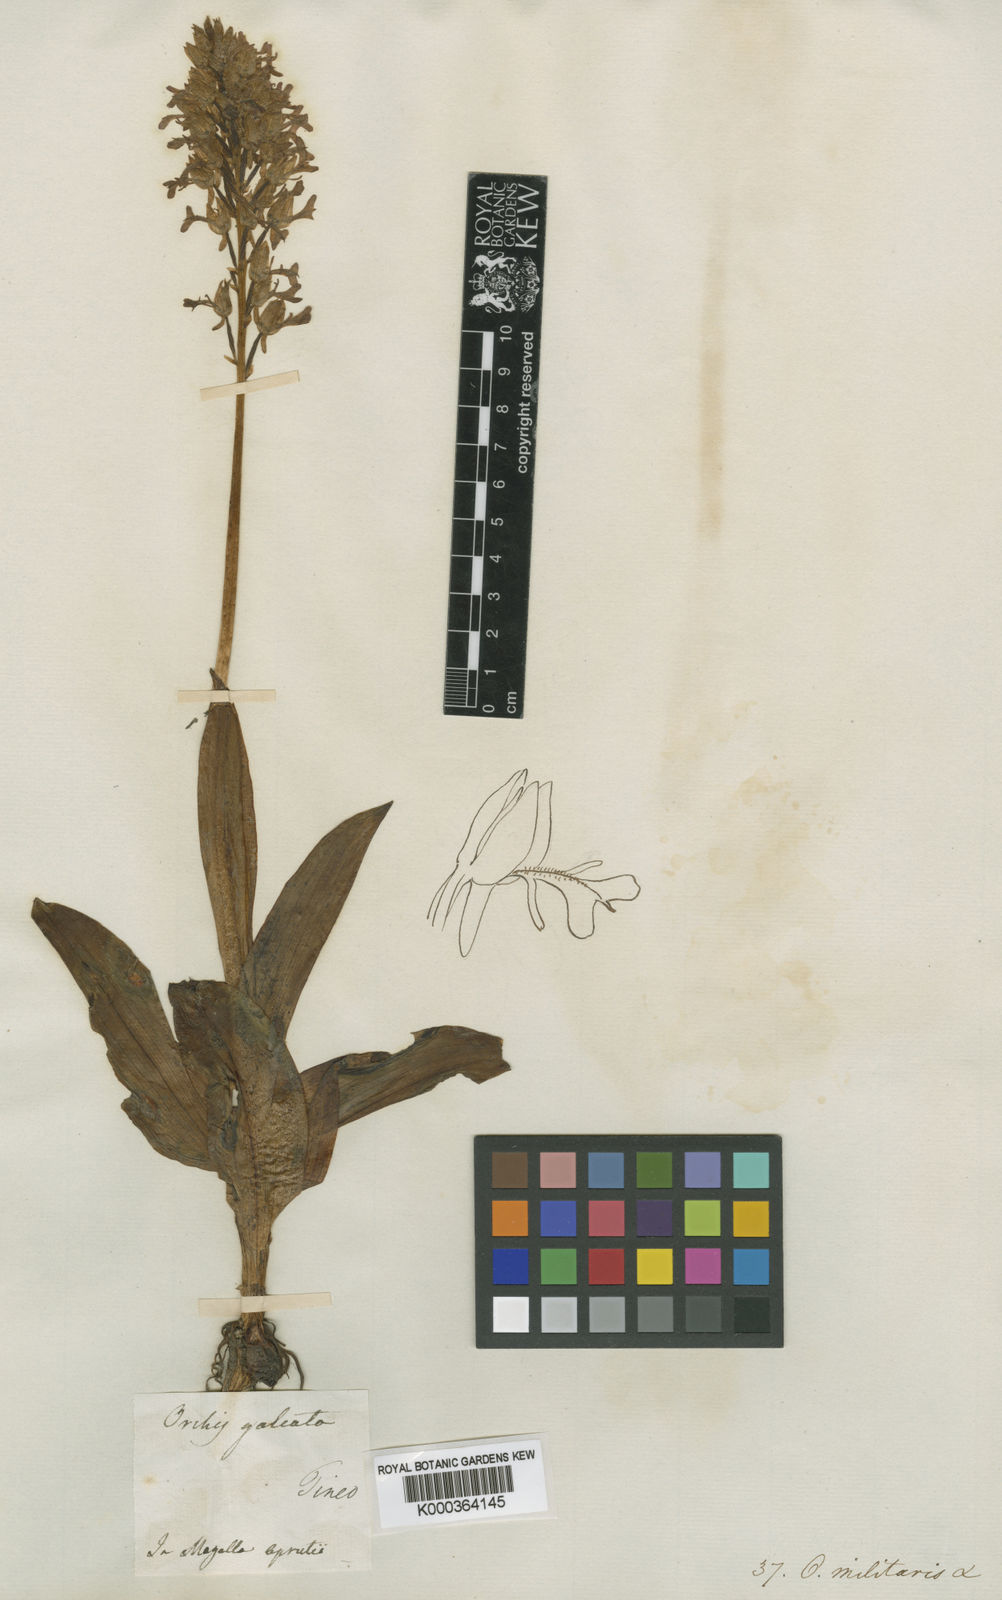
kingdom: Plantae
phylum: Tracheophyta
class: Liliopsida
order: Asparagales
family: Orchidaceae
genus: Orchis
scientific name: Orchis militaris
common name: Military orchid
